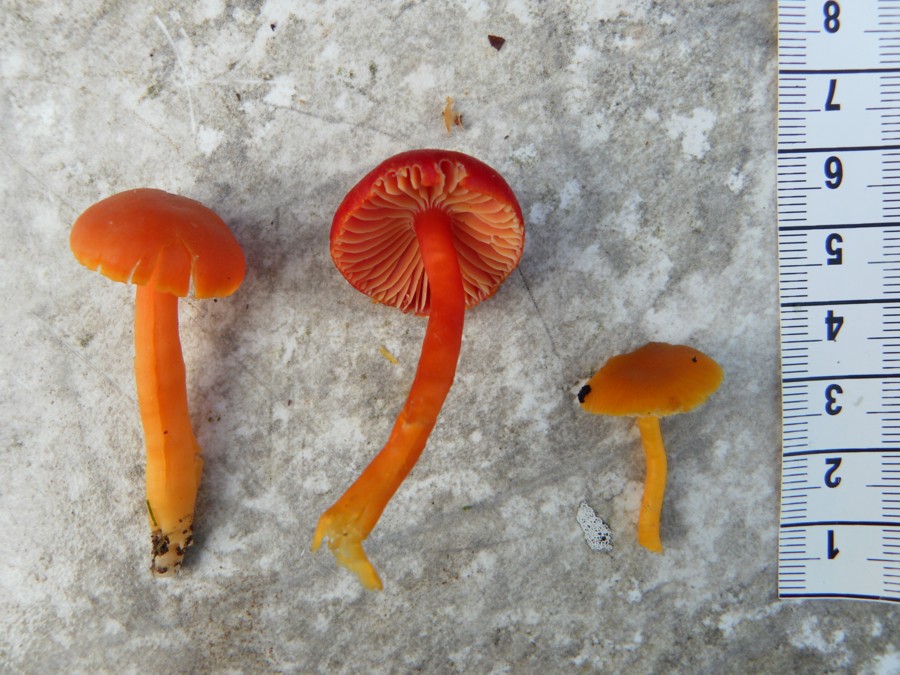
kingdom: Fungi
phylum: Basidiomycota
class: Agaricomycetes
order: Agaricales
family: Hygrophoraceae
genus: Hygrocybe
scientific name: Hygrocybe coccinea
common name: cinnober-vokshat
